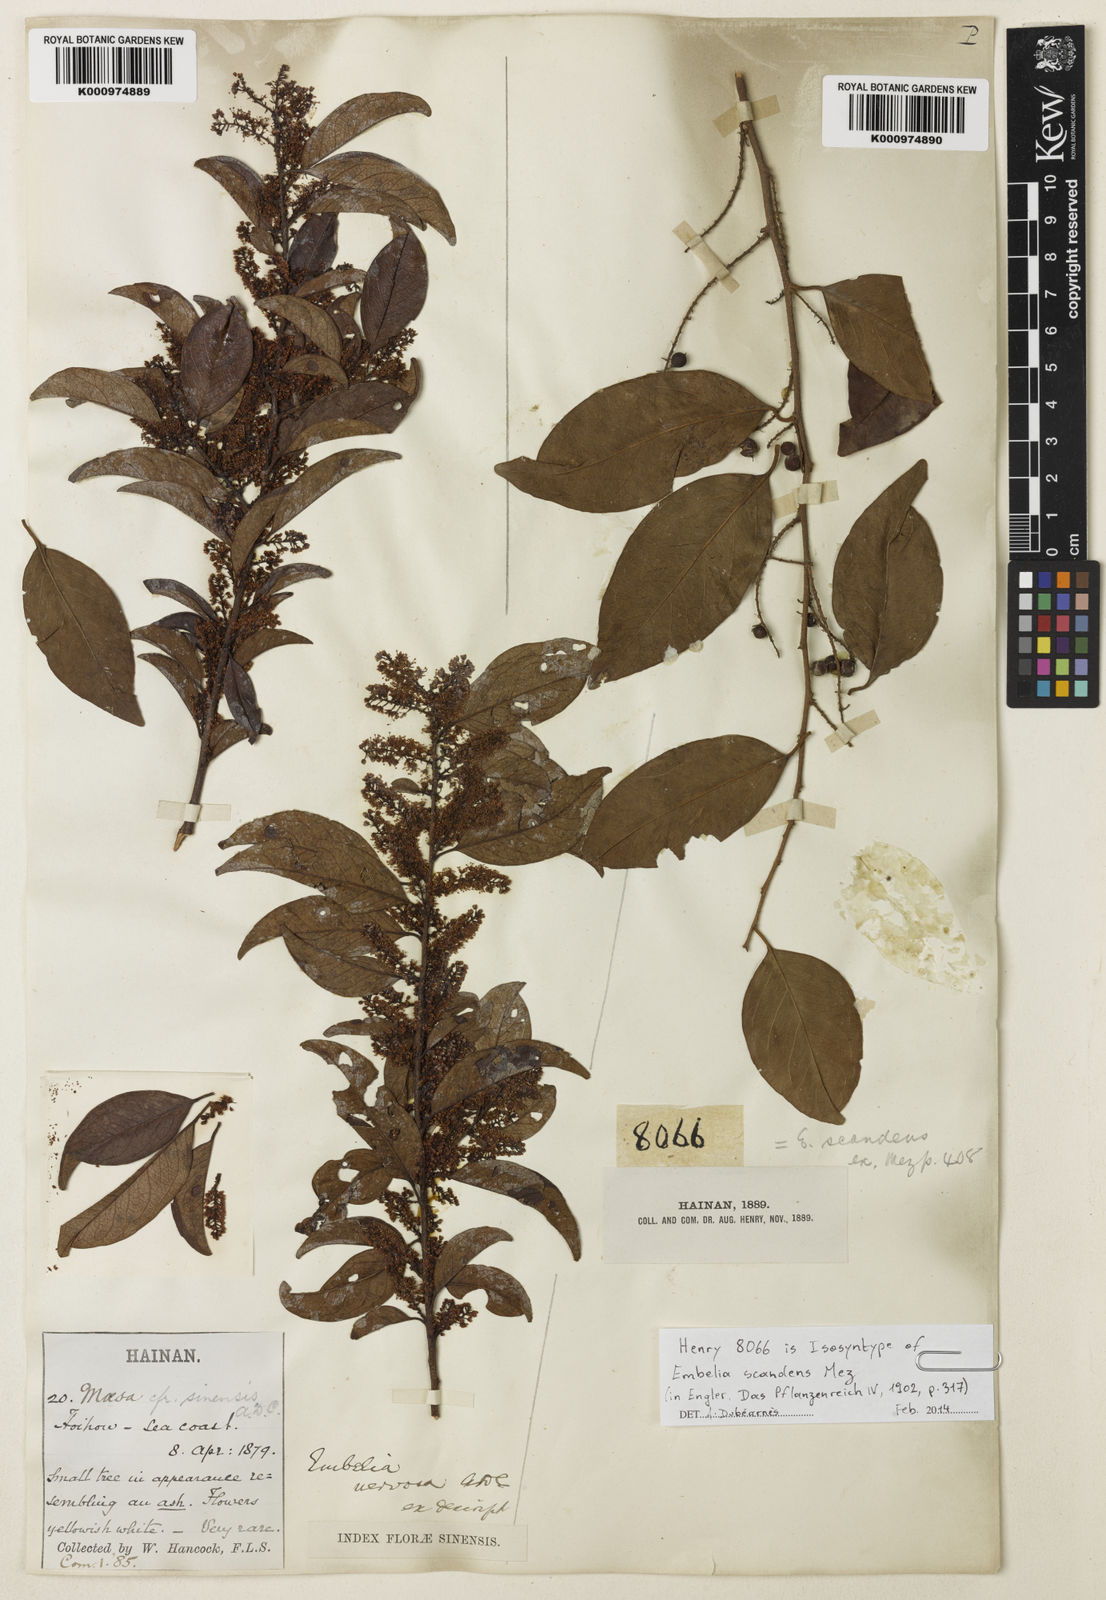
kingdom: Plantae
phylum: Tracheophyta
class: Magnoliopsida
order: Ericales
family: Primulaceae
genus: Embelia
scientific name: Embelia scandens
